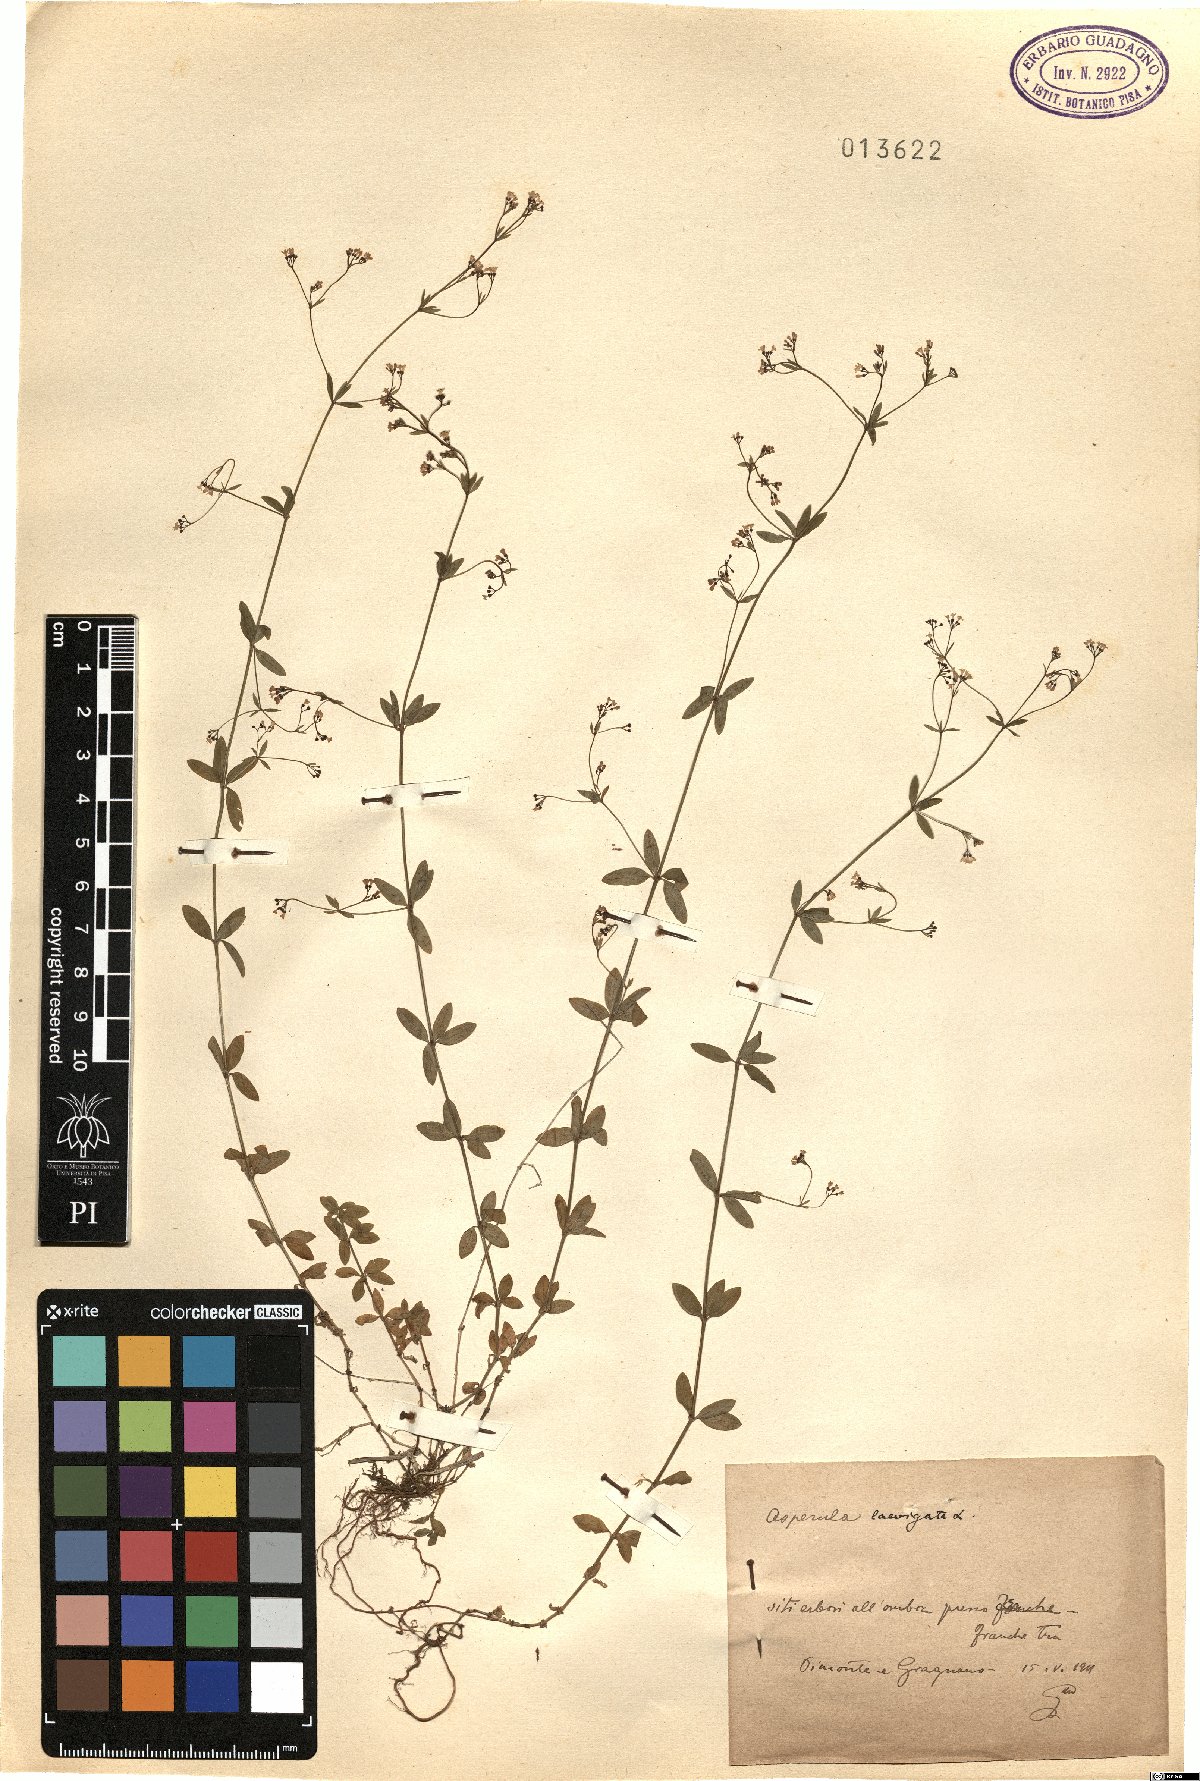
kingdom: Plantae
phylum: Tracheophyta
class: Magnoliopsida
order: Gentianales
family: Rubiaceae
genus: Asperula
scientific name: Asperula laevigata
